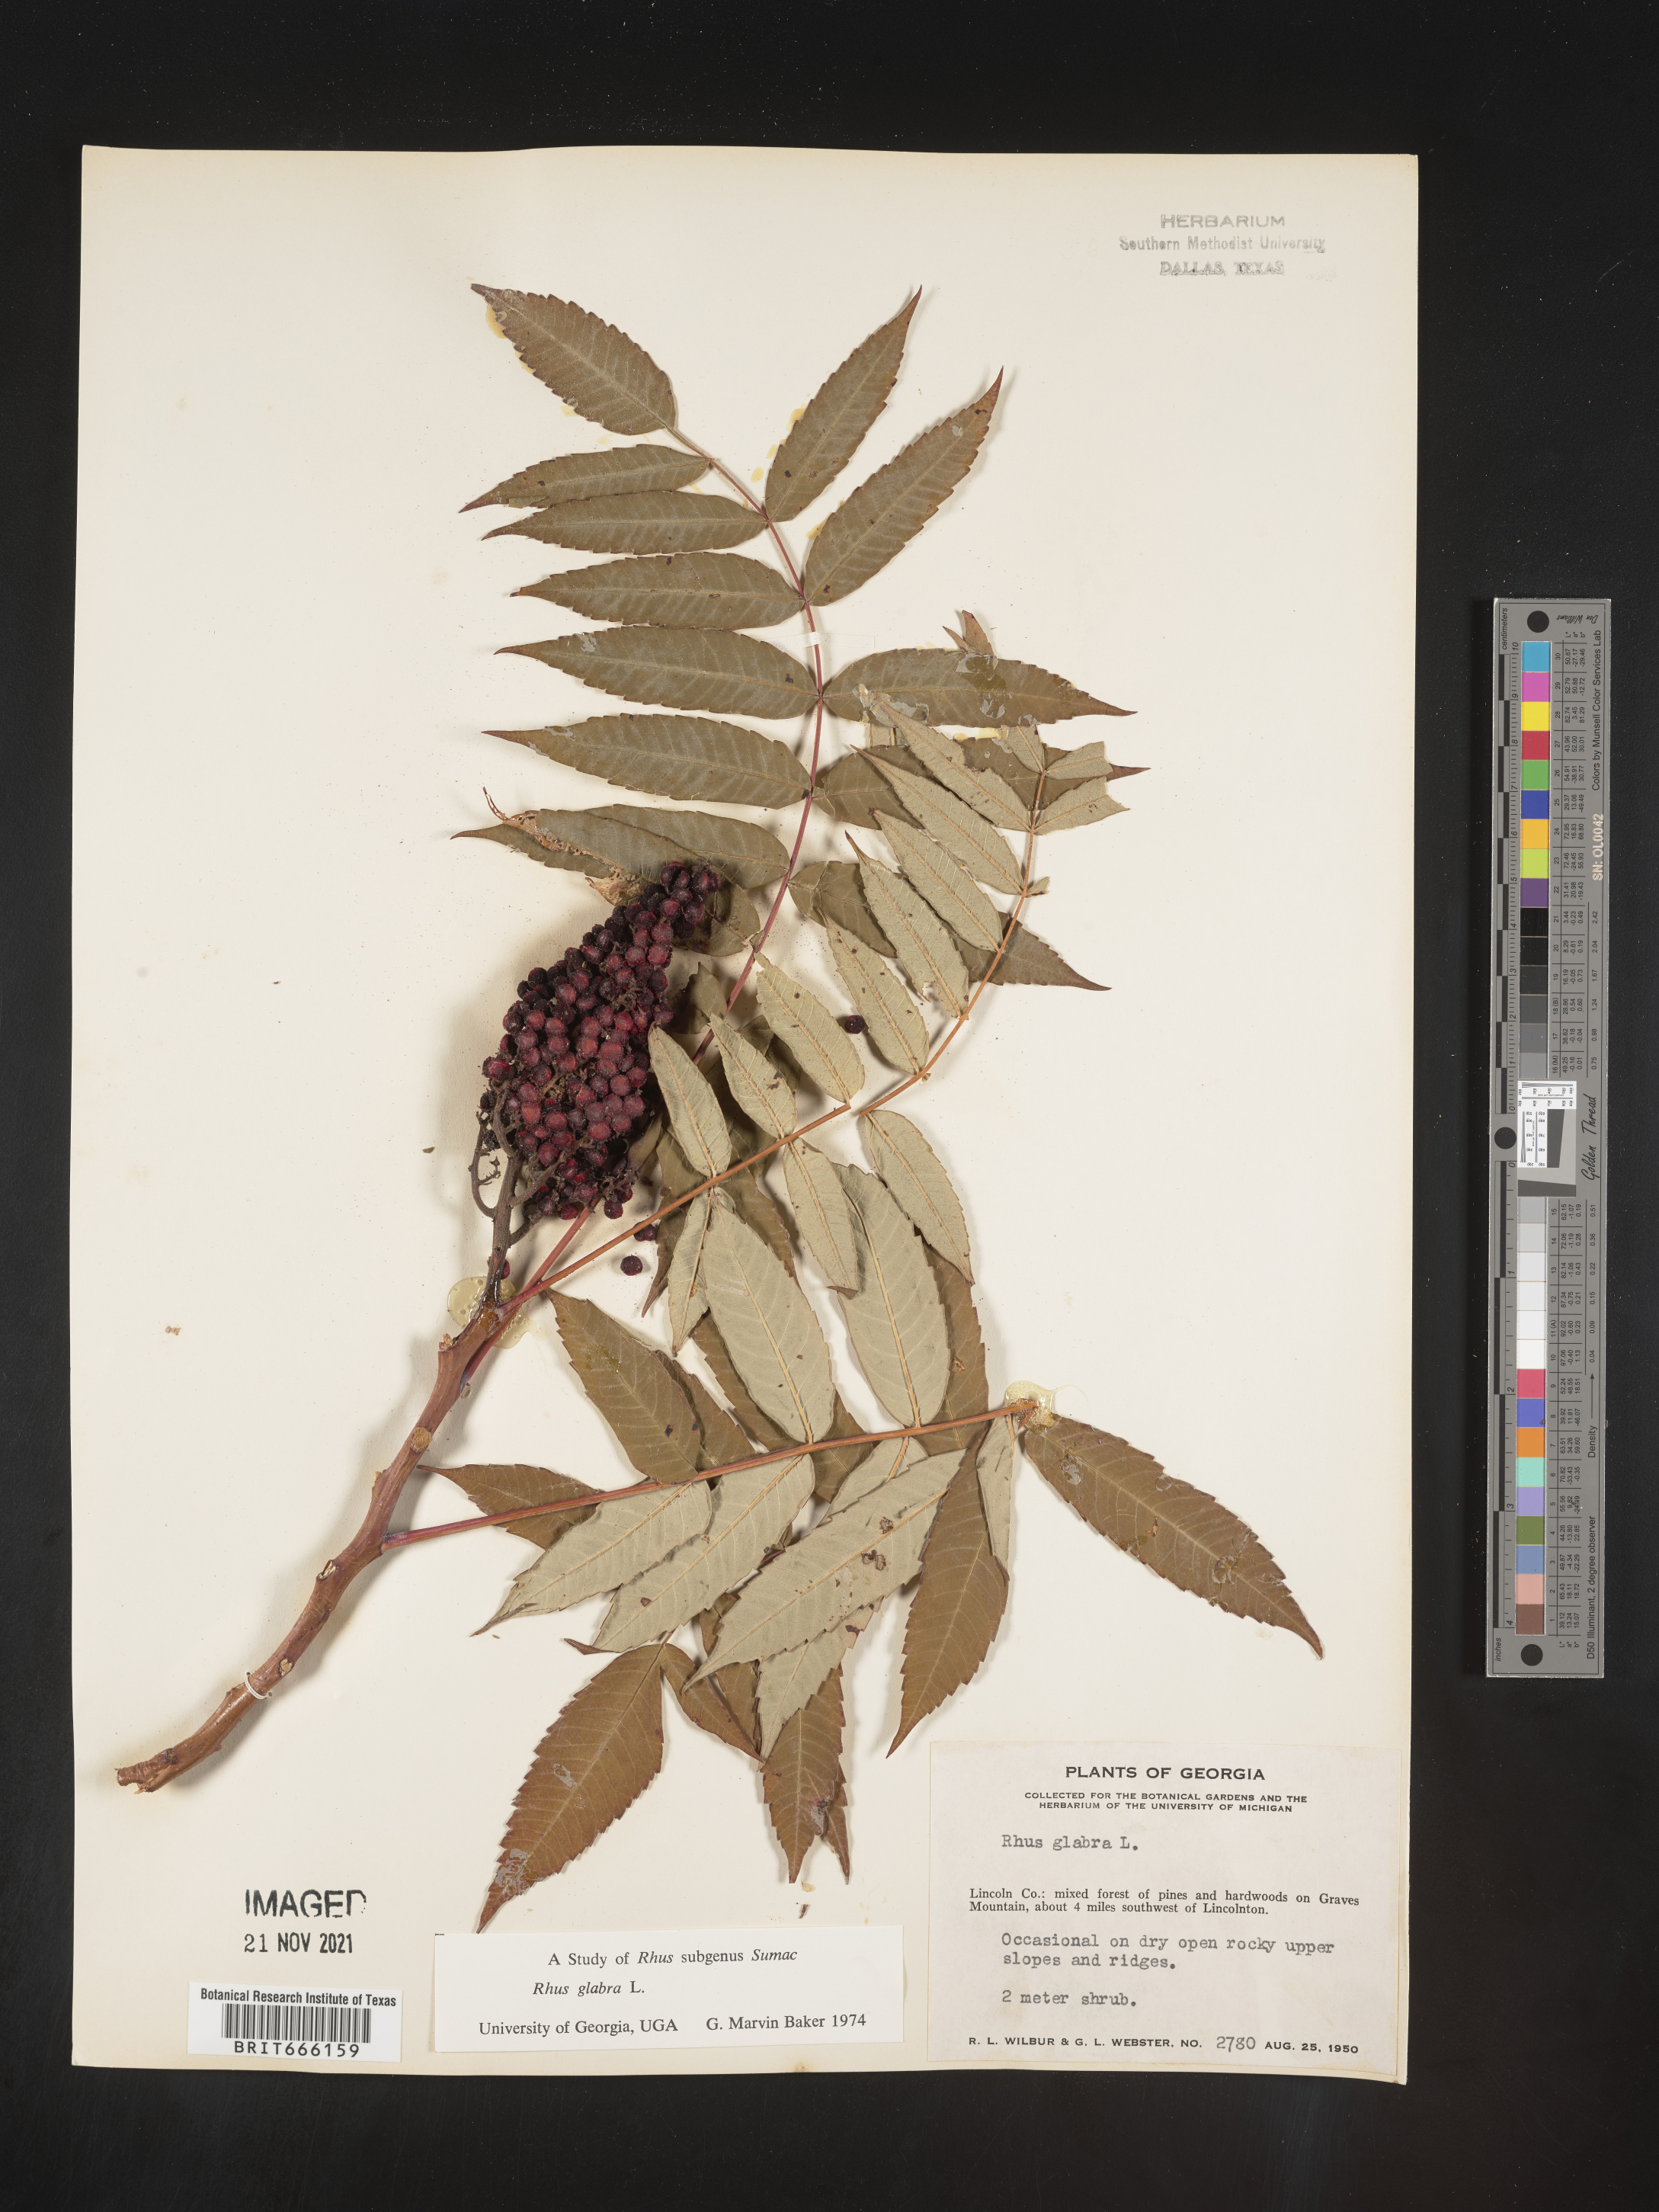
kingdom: Plantae
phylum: Tracheophyta
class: Magnoliopsida
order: Sapindales
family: Anacardiaceae
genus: Rhus
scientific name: Rhus glabra
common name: Scarlet sumac
